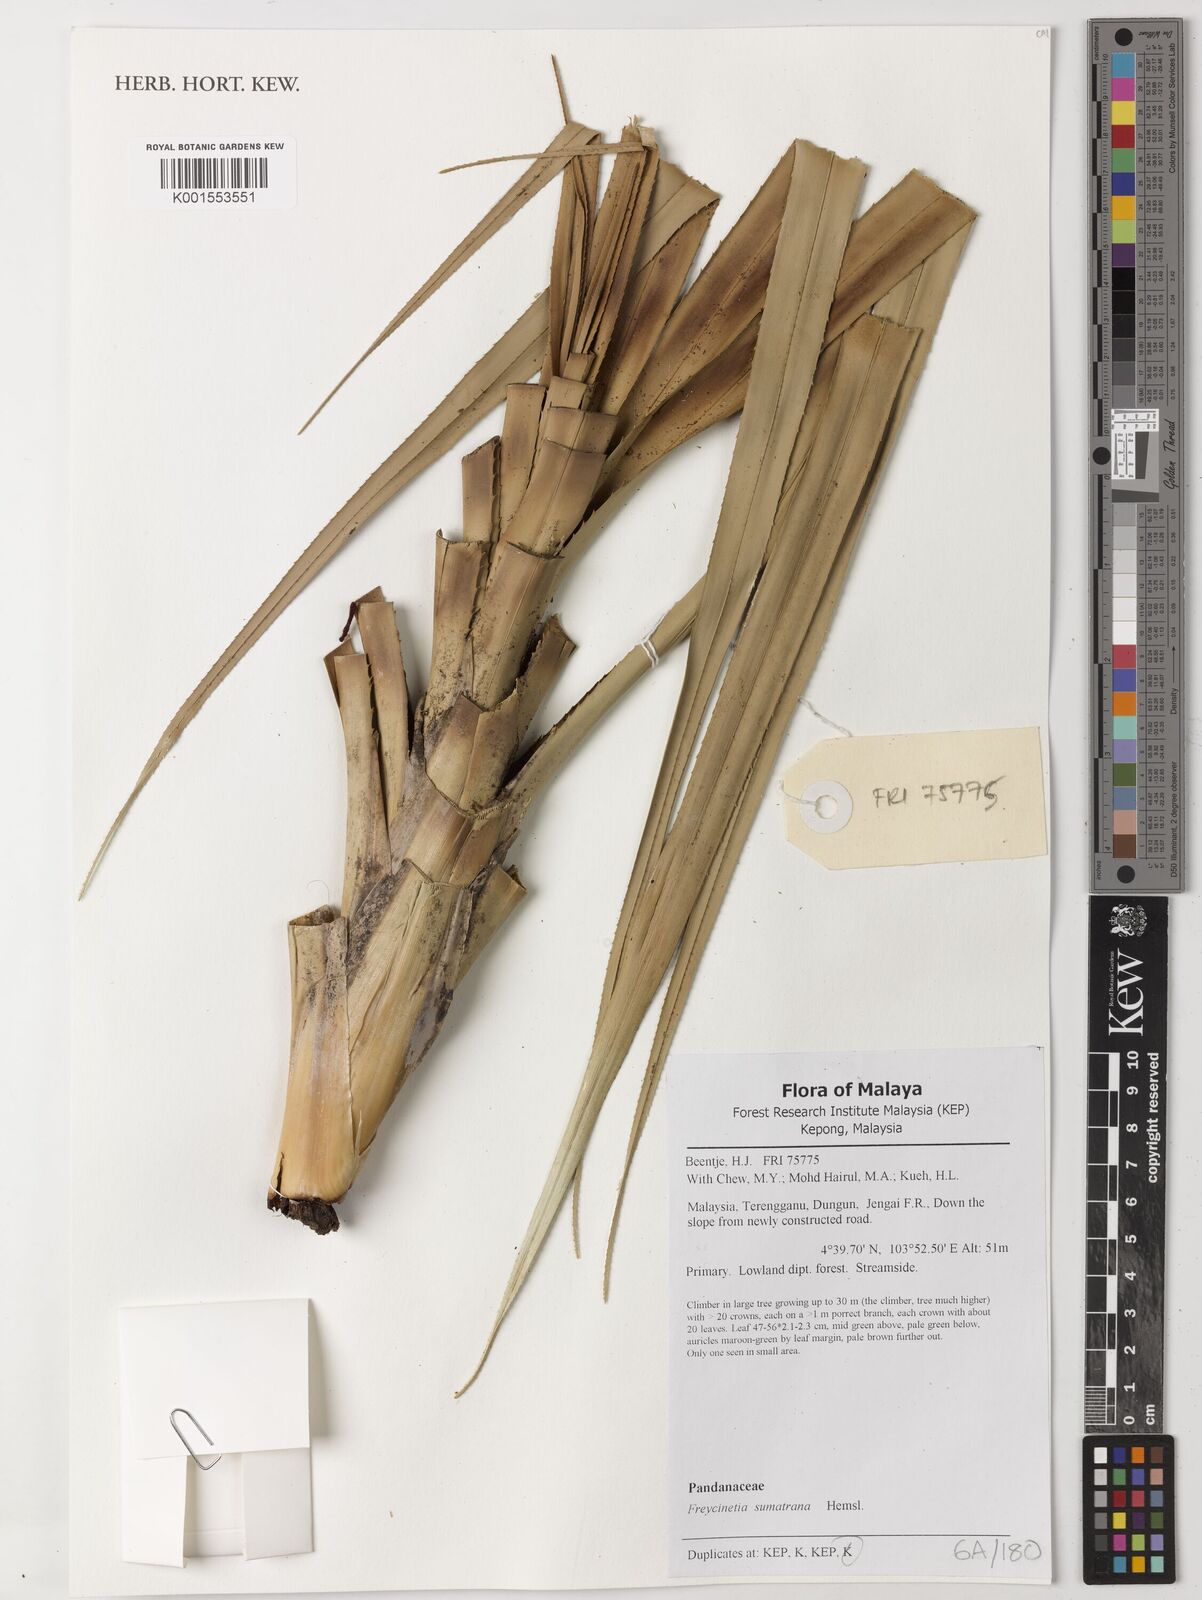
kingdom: Plantae
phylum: Tracheophyta
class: Liliopsida
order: Pandanales
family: Pandanaceae
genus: Freycinetia
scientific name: Freycinetia sumatrana
